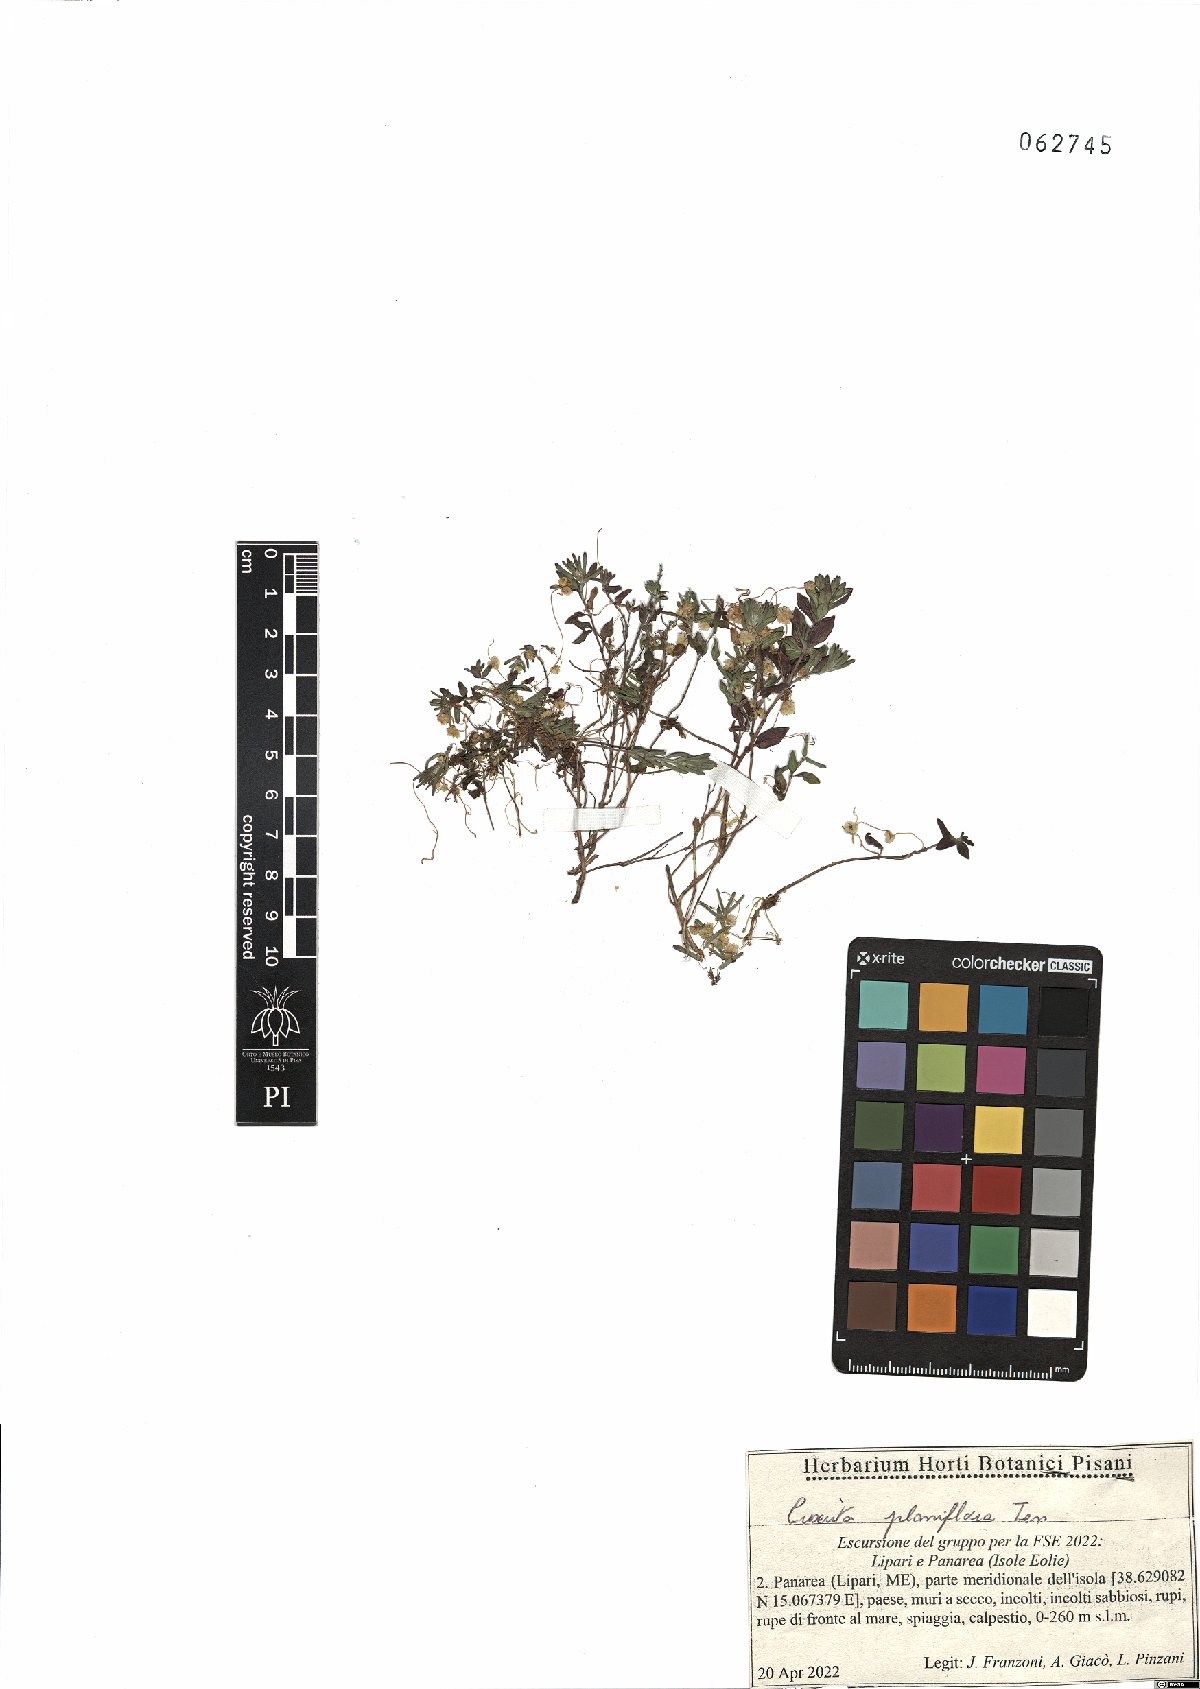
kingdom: Plantae
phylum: Tracheophyta
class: Magnoliopsida
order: Solanales
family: Convolvulaceae
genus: Cuscuta
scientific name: Cuscuta planiflora
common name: Small-seed alfalfa dodder
